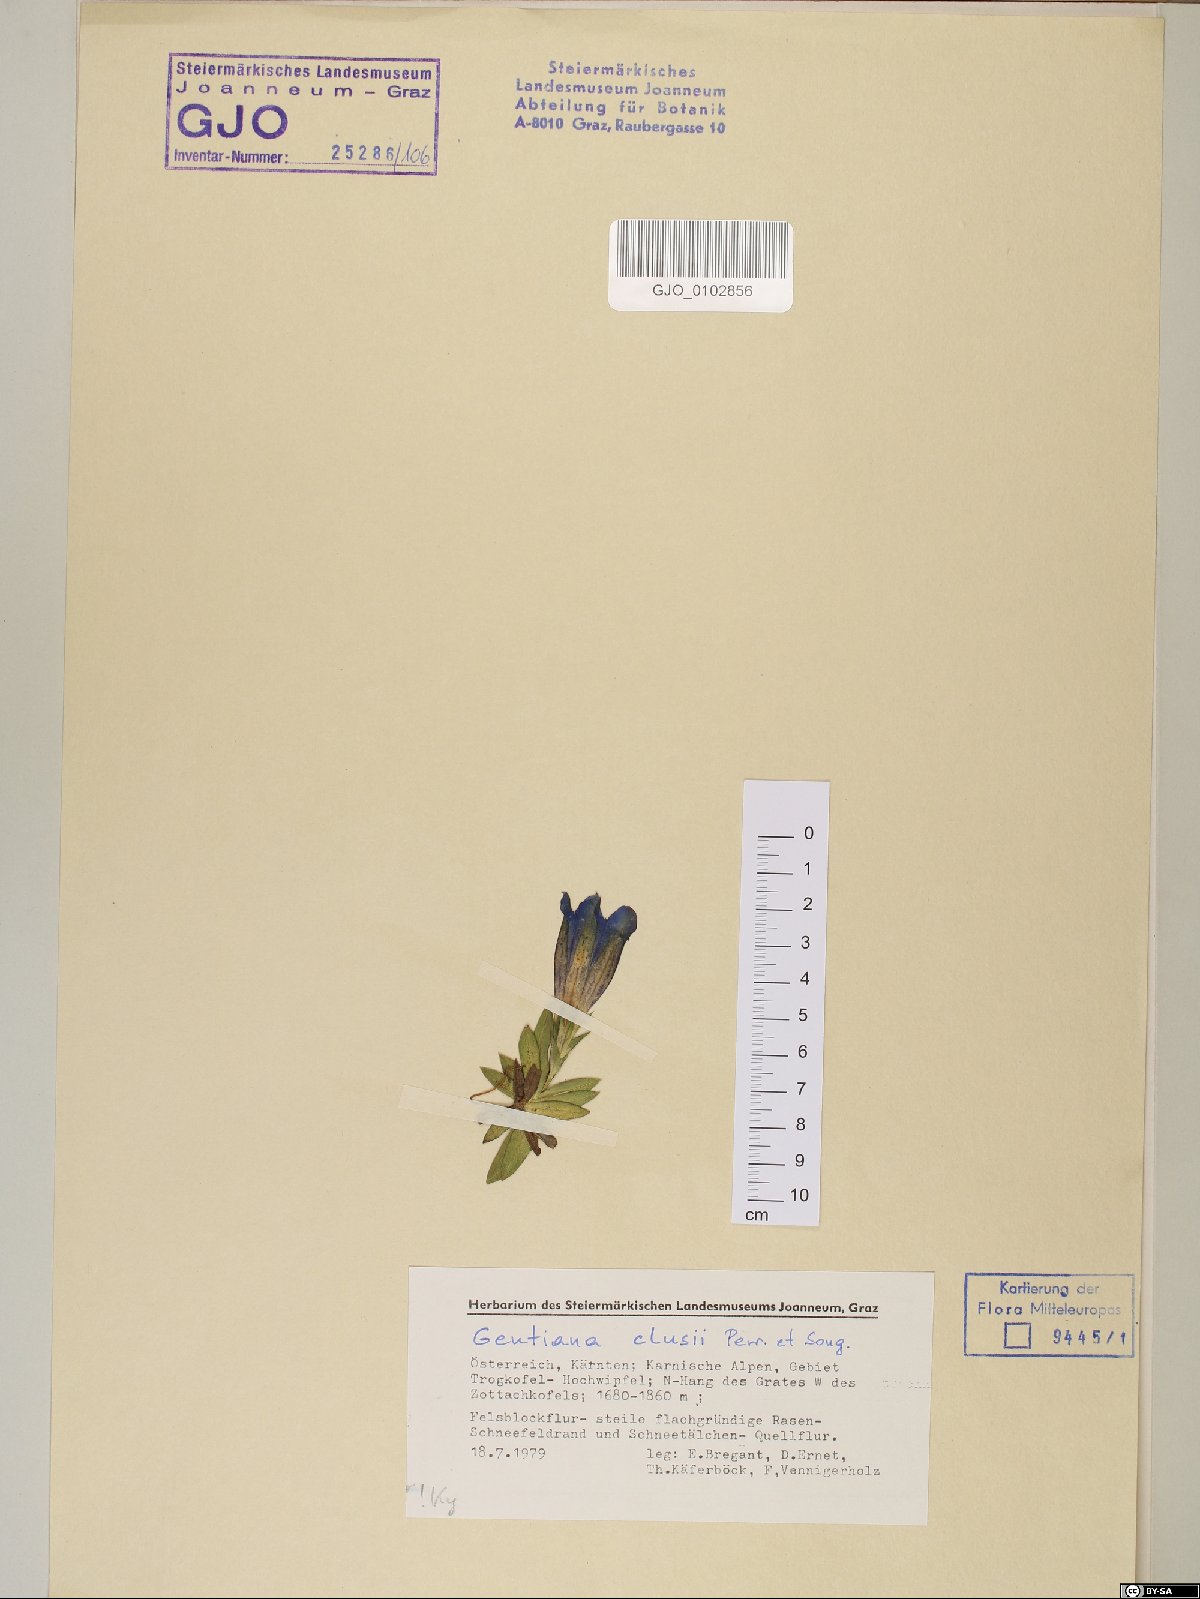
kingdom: Plantae
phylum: Tracheophyta
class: Magnoliopsida
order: Gentianales
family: Gentianaceae
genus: Gentiana
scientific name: Gentiana clusii
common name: Trumpet gentian
